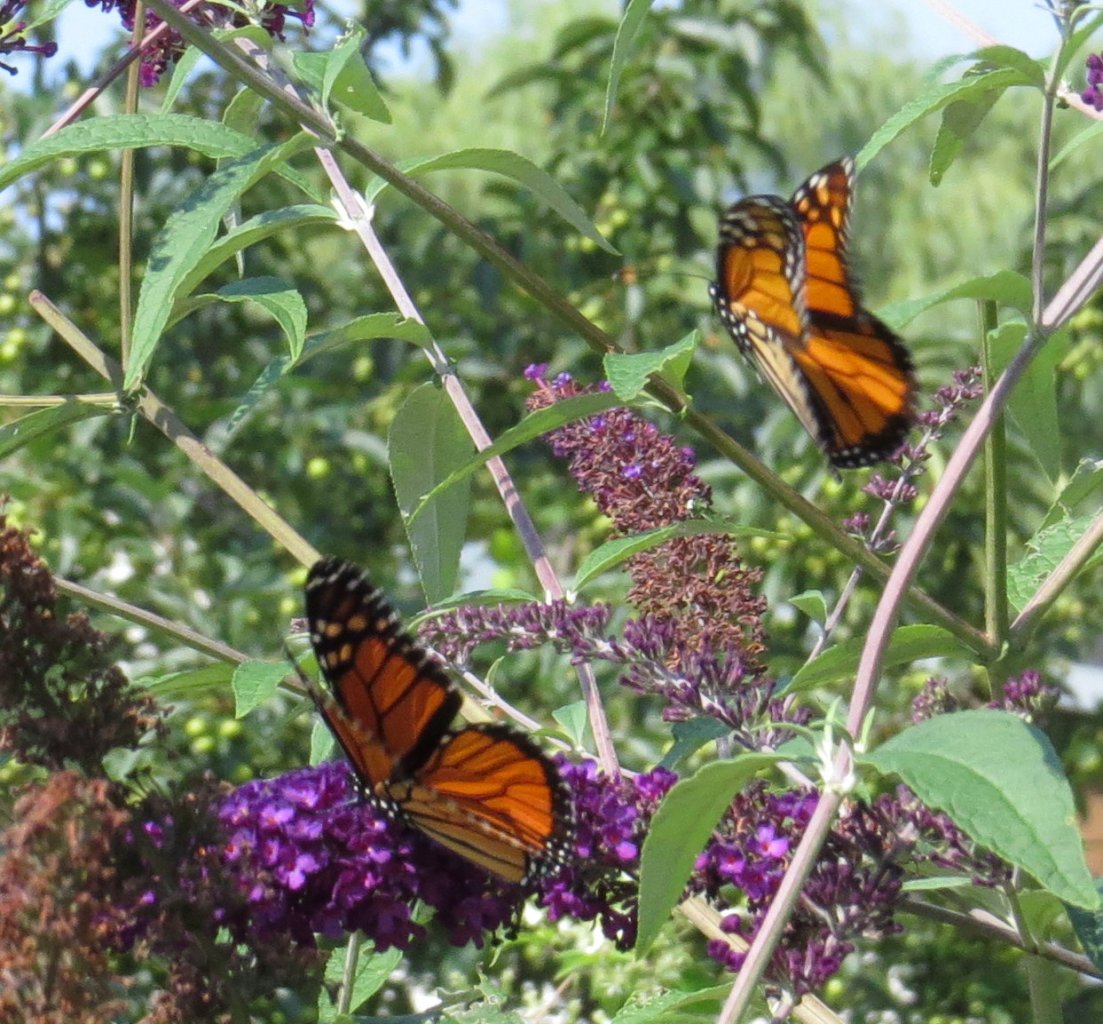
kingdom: Animalia
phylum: Arthropoda
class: Insecta
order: Lepidoptera
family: Nymphalidae
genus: Danaus
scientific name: Danaus plexippus
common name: Monarch
